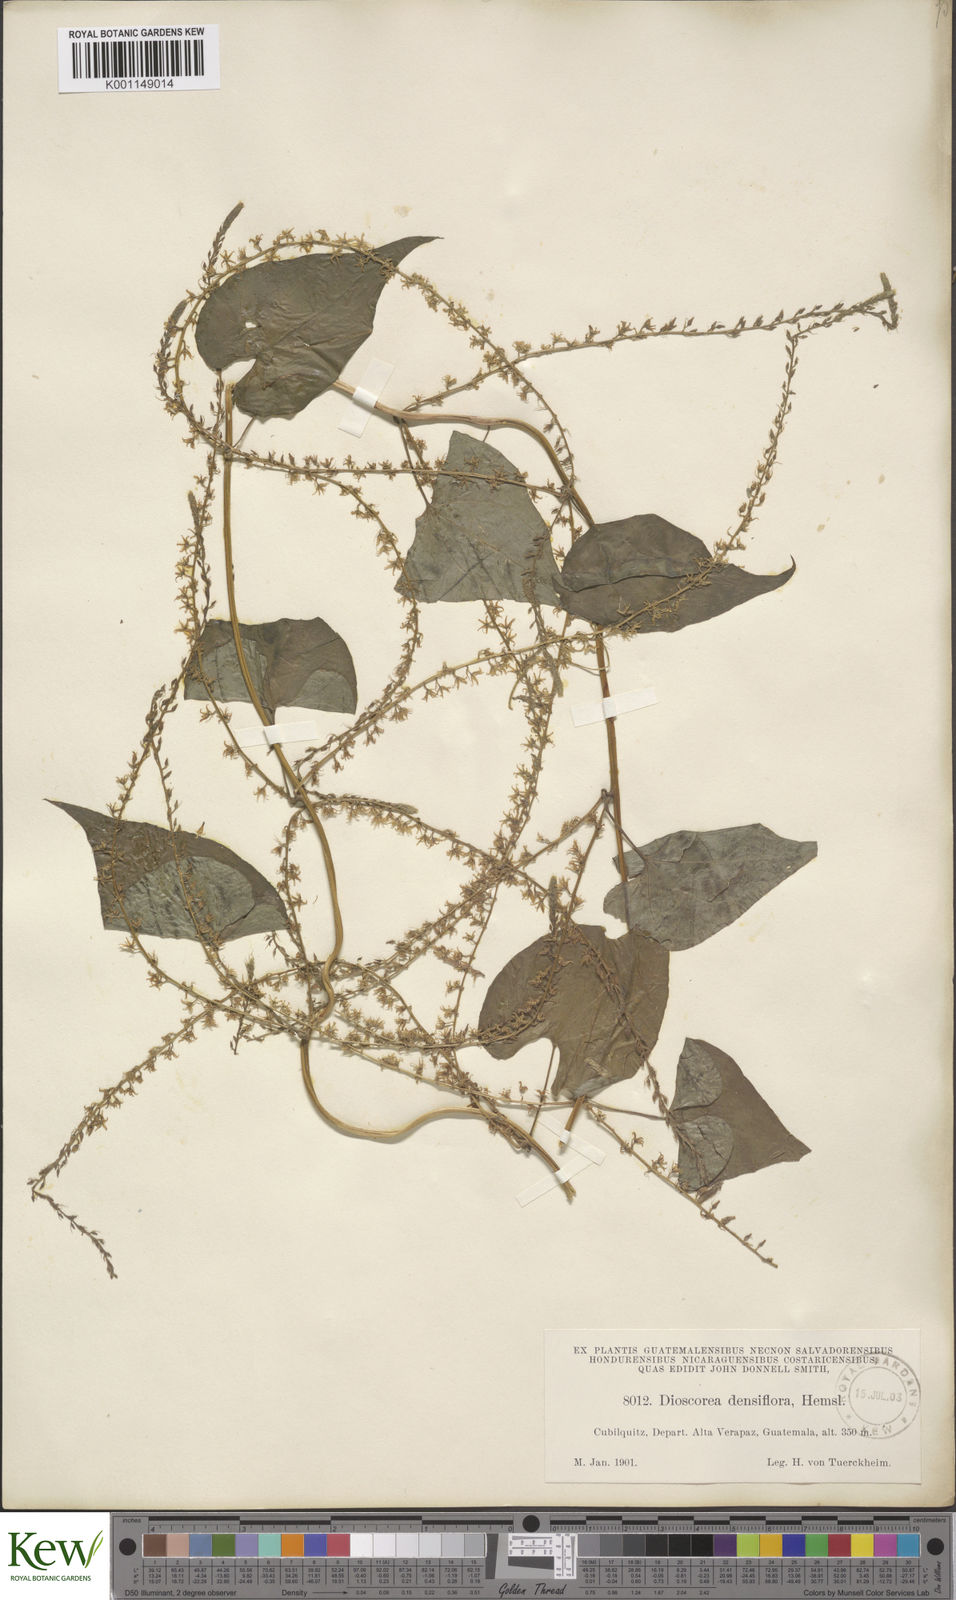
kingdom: Plantae
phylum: Tracheophyta
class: Liliopsida
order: Dioscoreales
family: Dioscoreaceae
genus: Dioscorea
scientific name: Dioscorea densiflora
